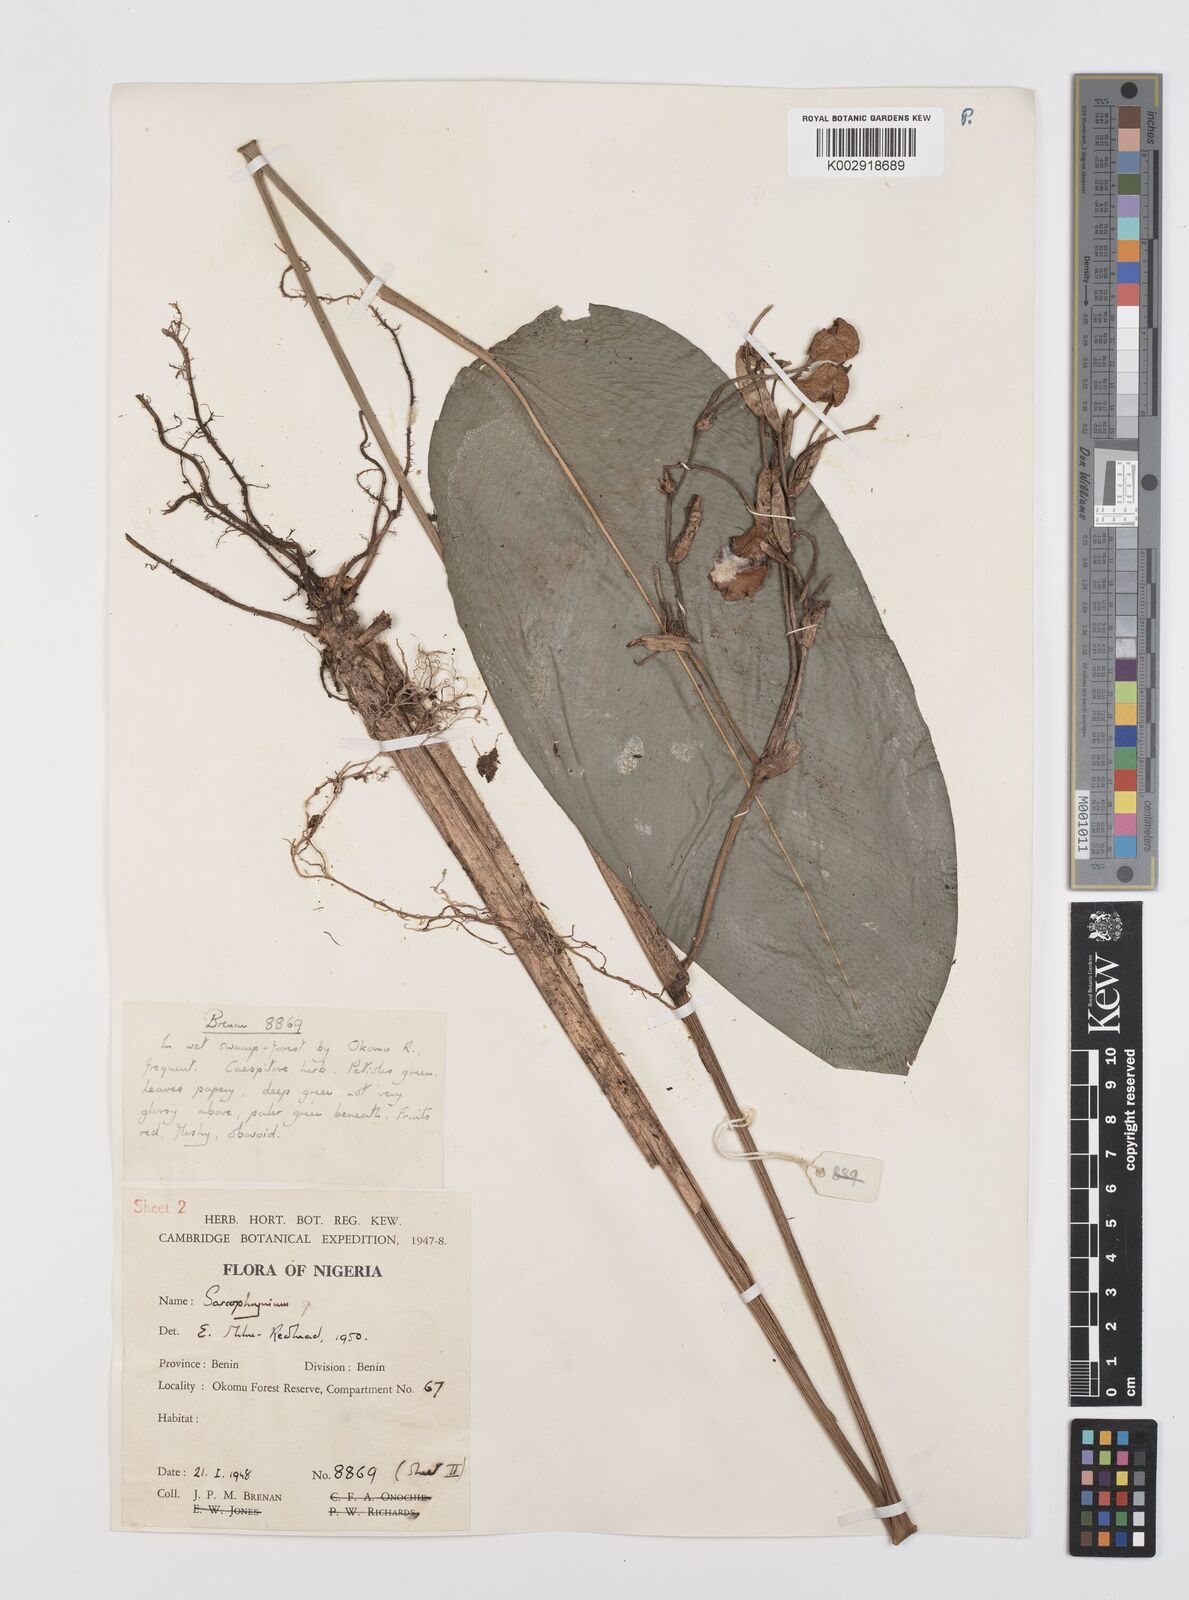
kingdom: Plantae
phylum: Tracheophyta
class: Liliopsida
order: Zingiberales
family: Marantaceae
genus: Sarcophrynium
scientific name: Sarcophrynium prionogonium
